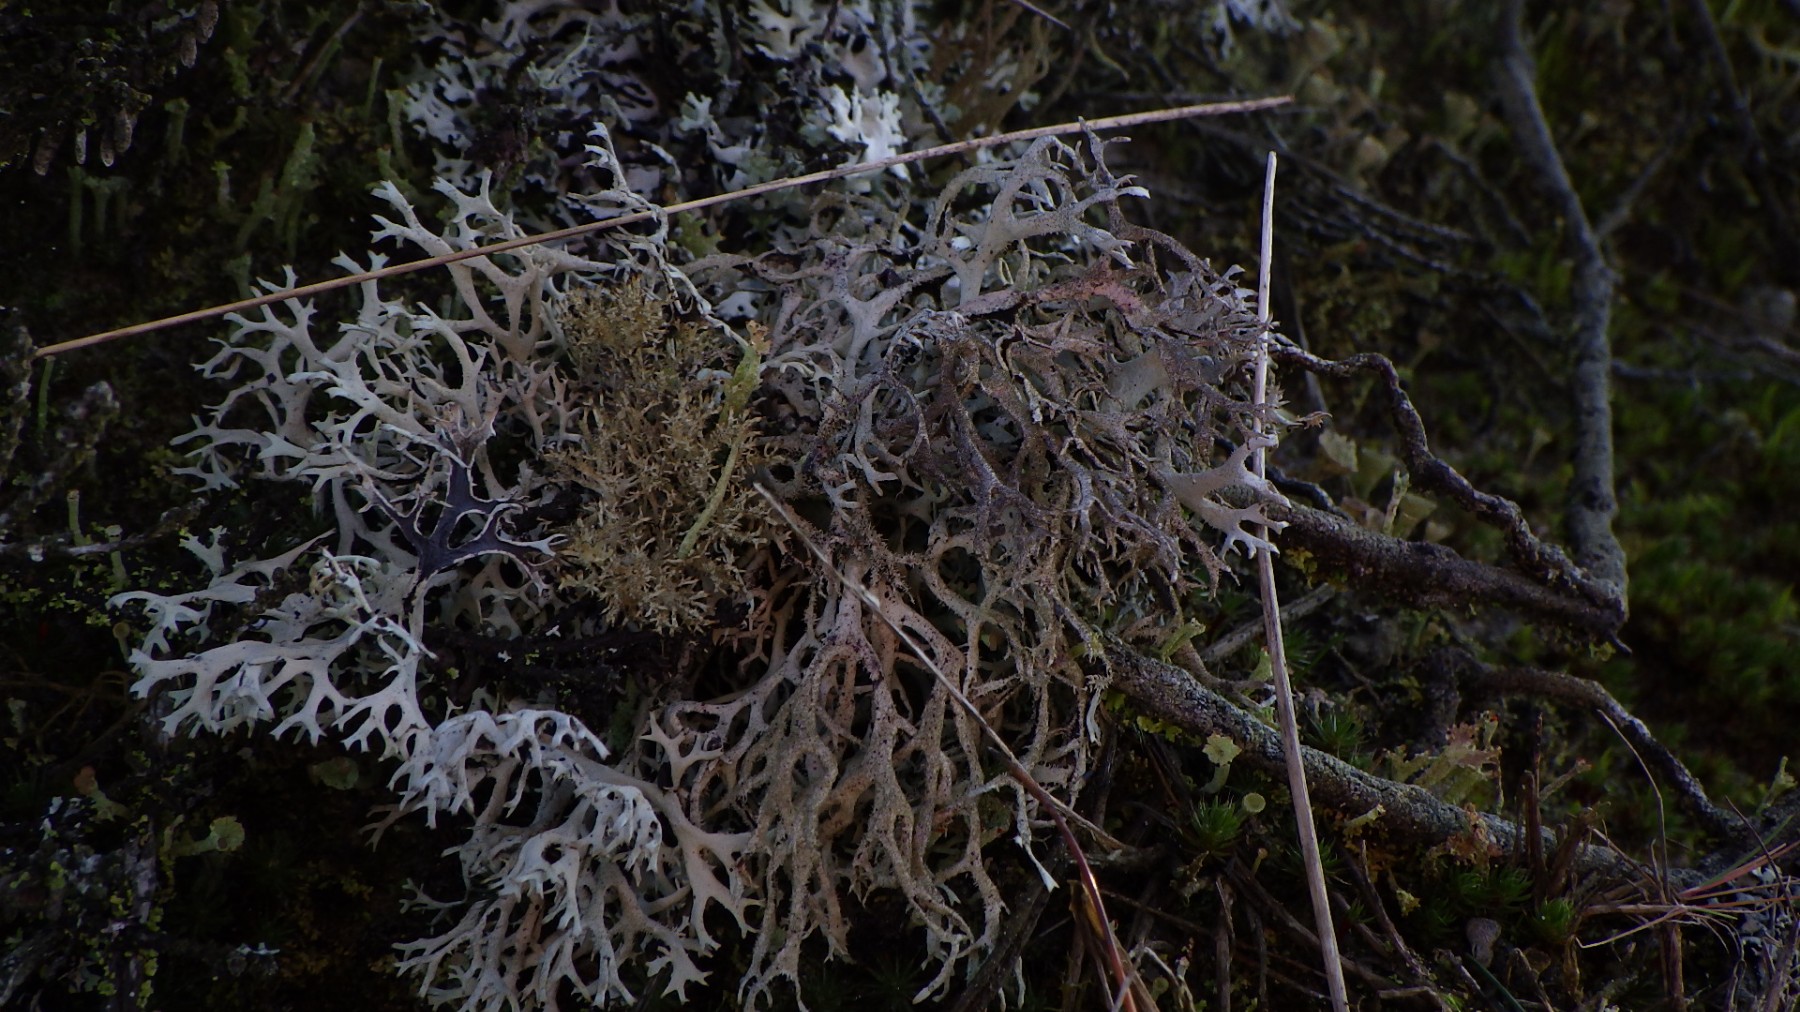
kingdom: Fungi
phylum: Ascomycota
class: Lecanoromycetes
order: Lecanorales
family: Parmeliaceae
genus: Pseudevernia
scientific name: Pseudevernia furfuracea
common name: grå fyrrelav
